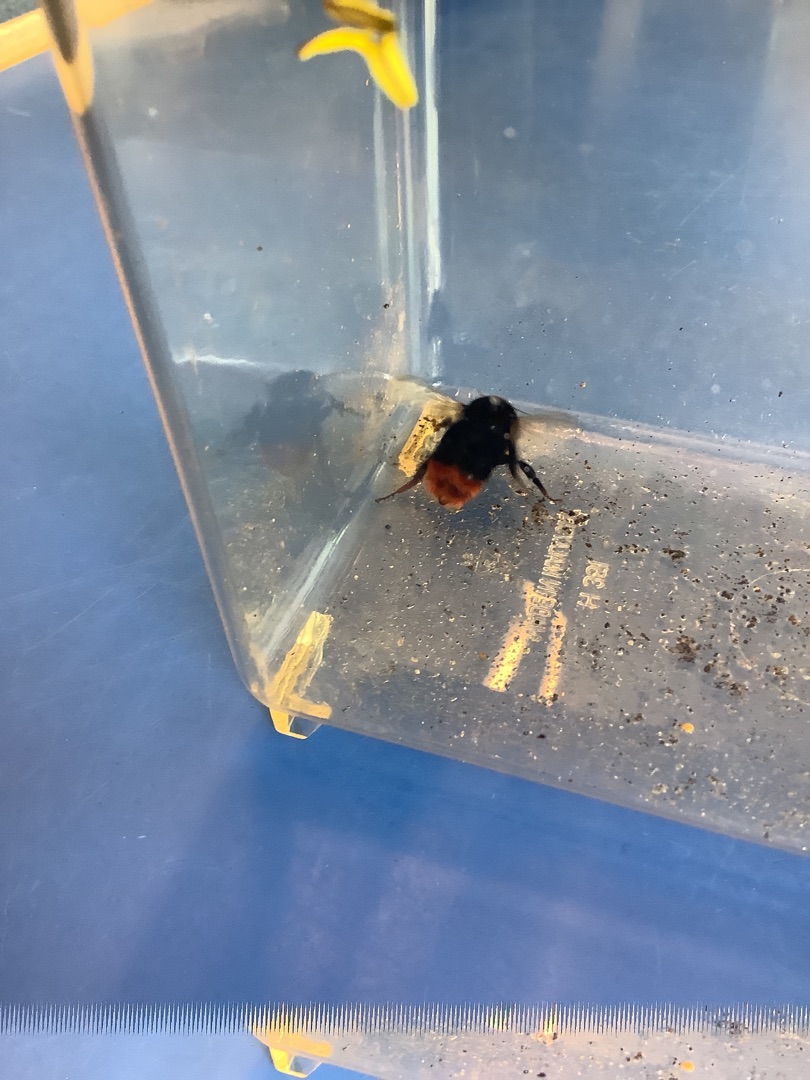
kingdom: Animalia
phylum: Arthropoda
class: Insecta
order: Hymenoptera
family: Apidae
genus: Bombus
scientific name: Bombus lapidarius
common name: Stenhumle
